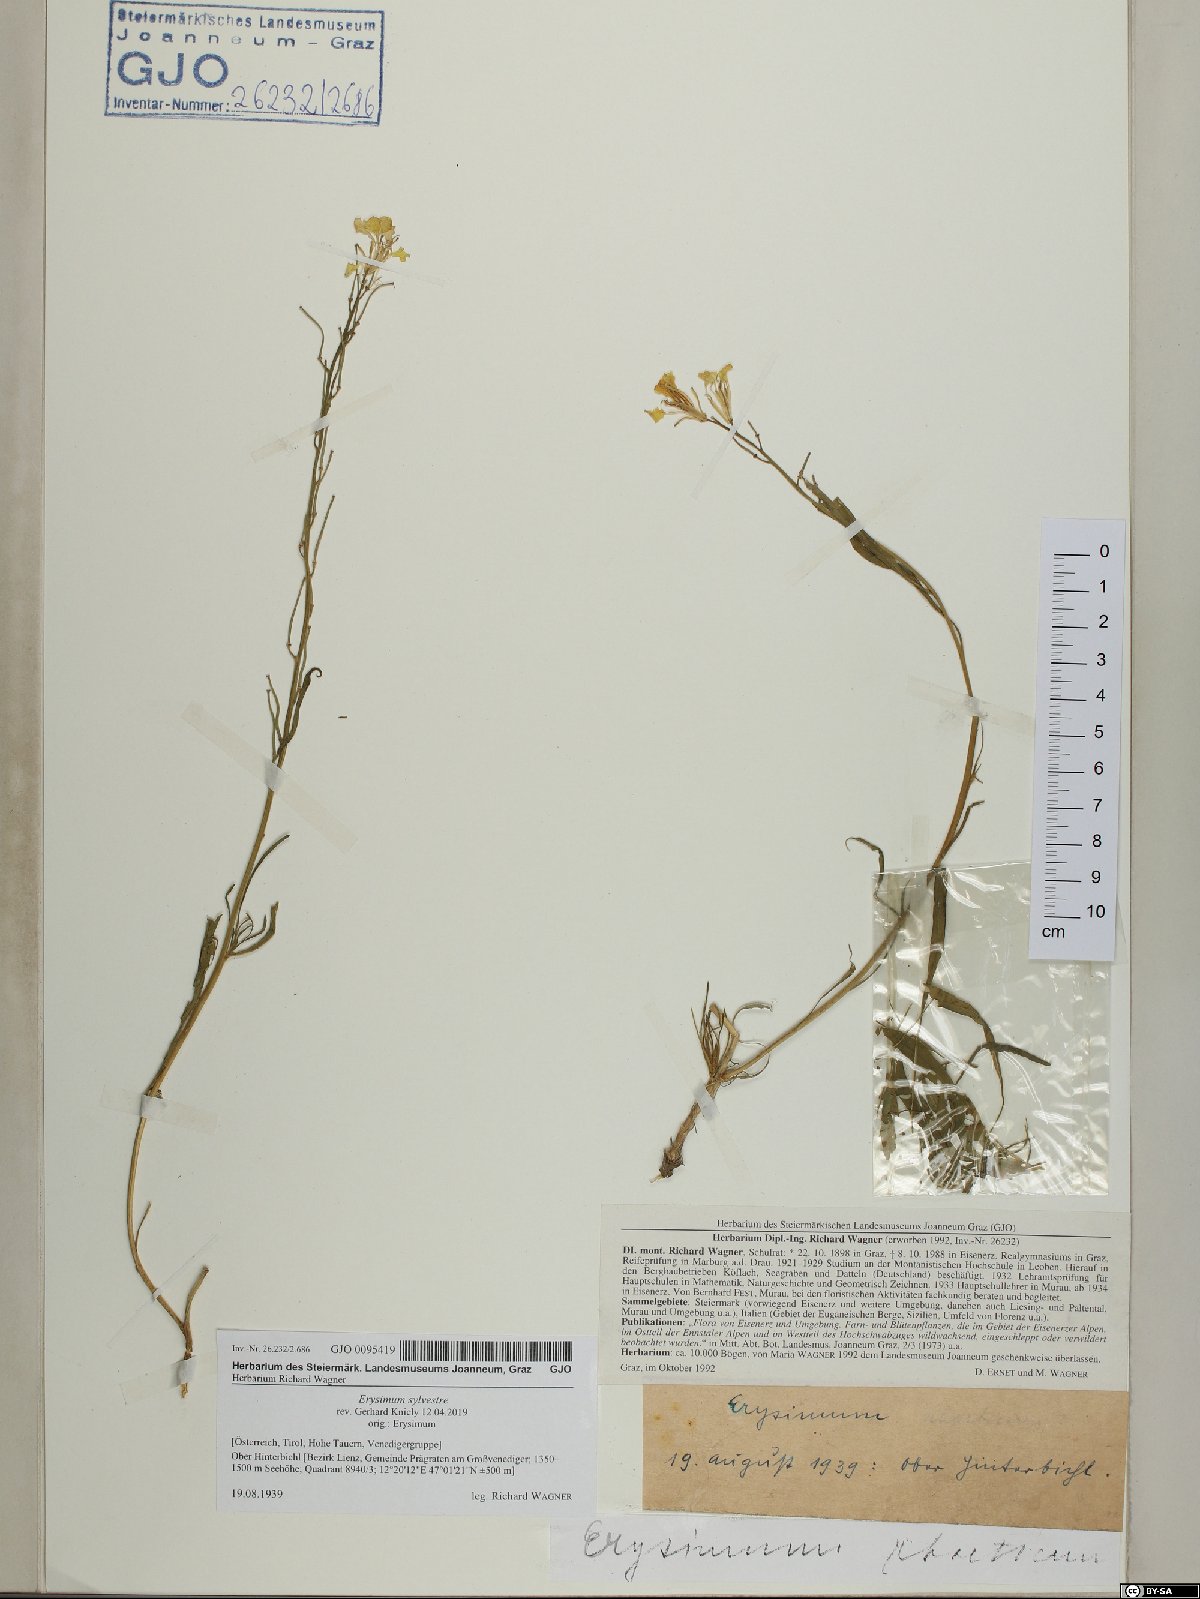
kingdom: Plantae
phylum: Tracheophyta
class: Magnoliopsida
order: Brassicales
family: Brassicaceae
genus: Erysimum
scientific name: Erysimum sylvestre
